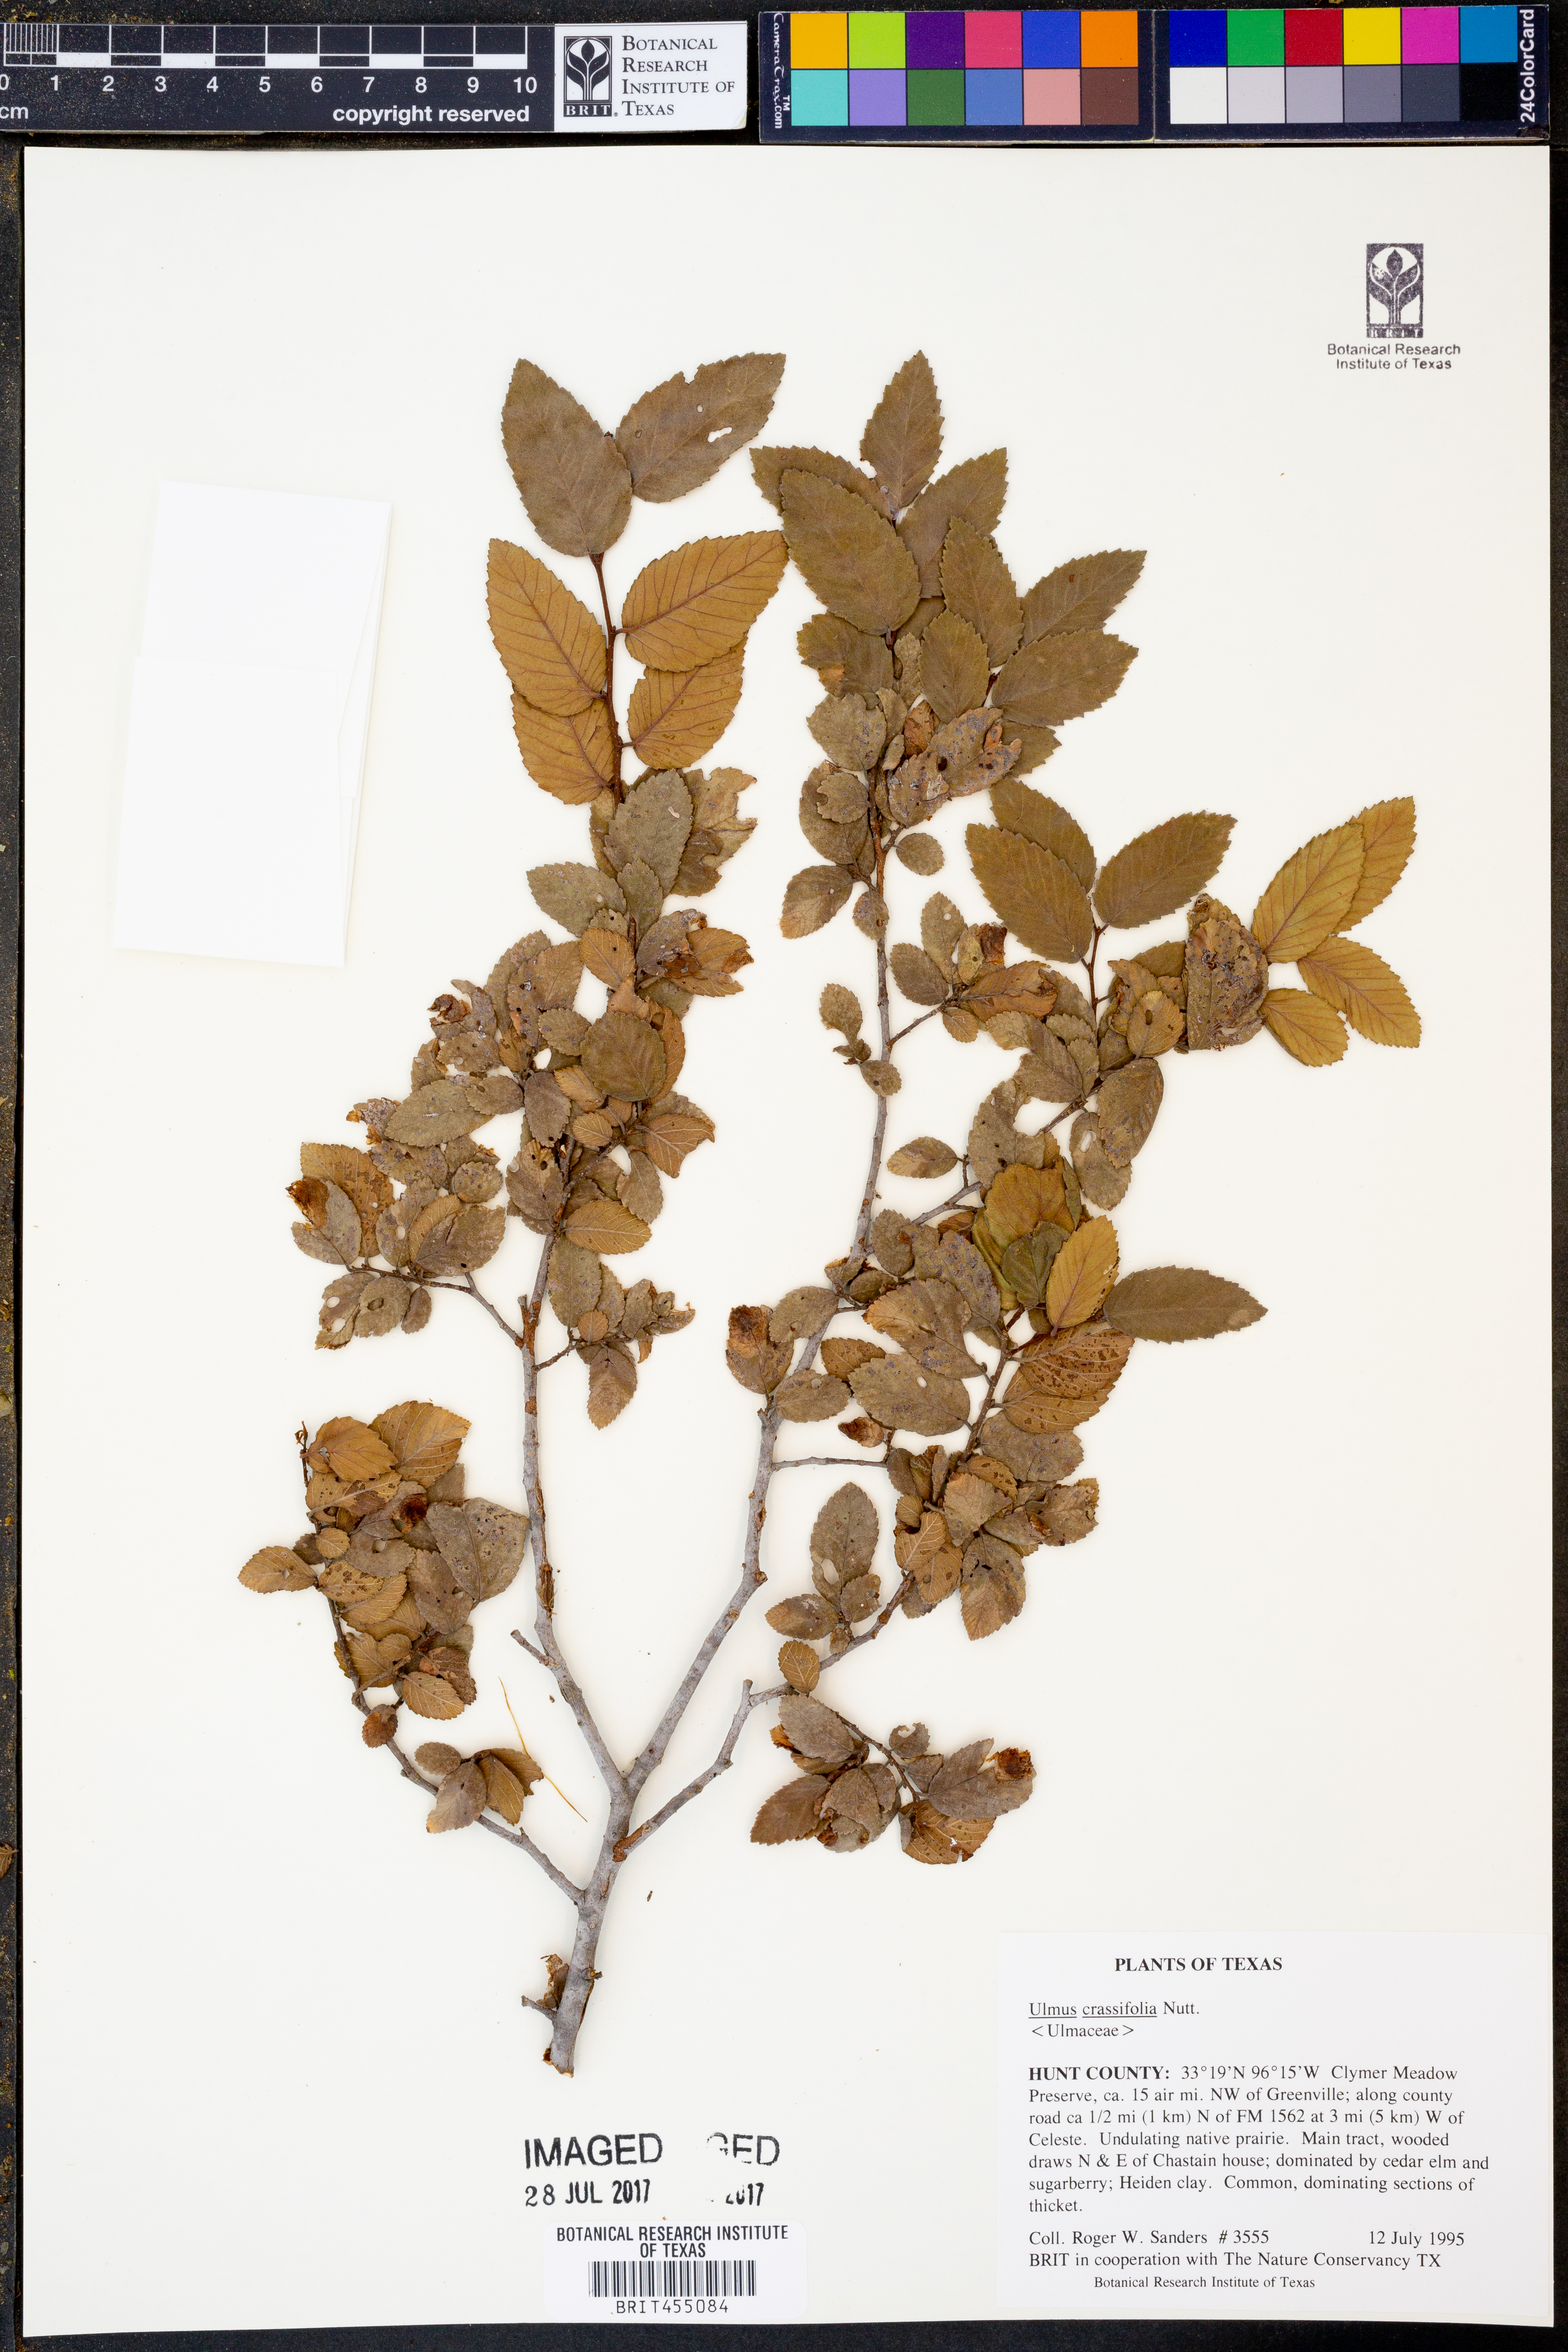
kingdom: Plantae
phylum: Tracheophyta
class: Magnoliopsida
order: Rosales
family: Ulmaceae
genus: Ulmus
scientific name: Ulmus crassifolia
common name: Basket elm
